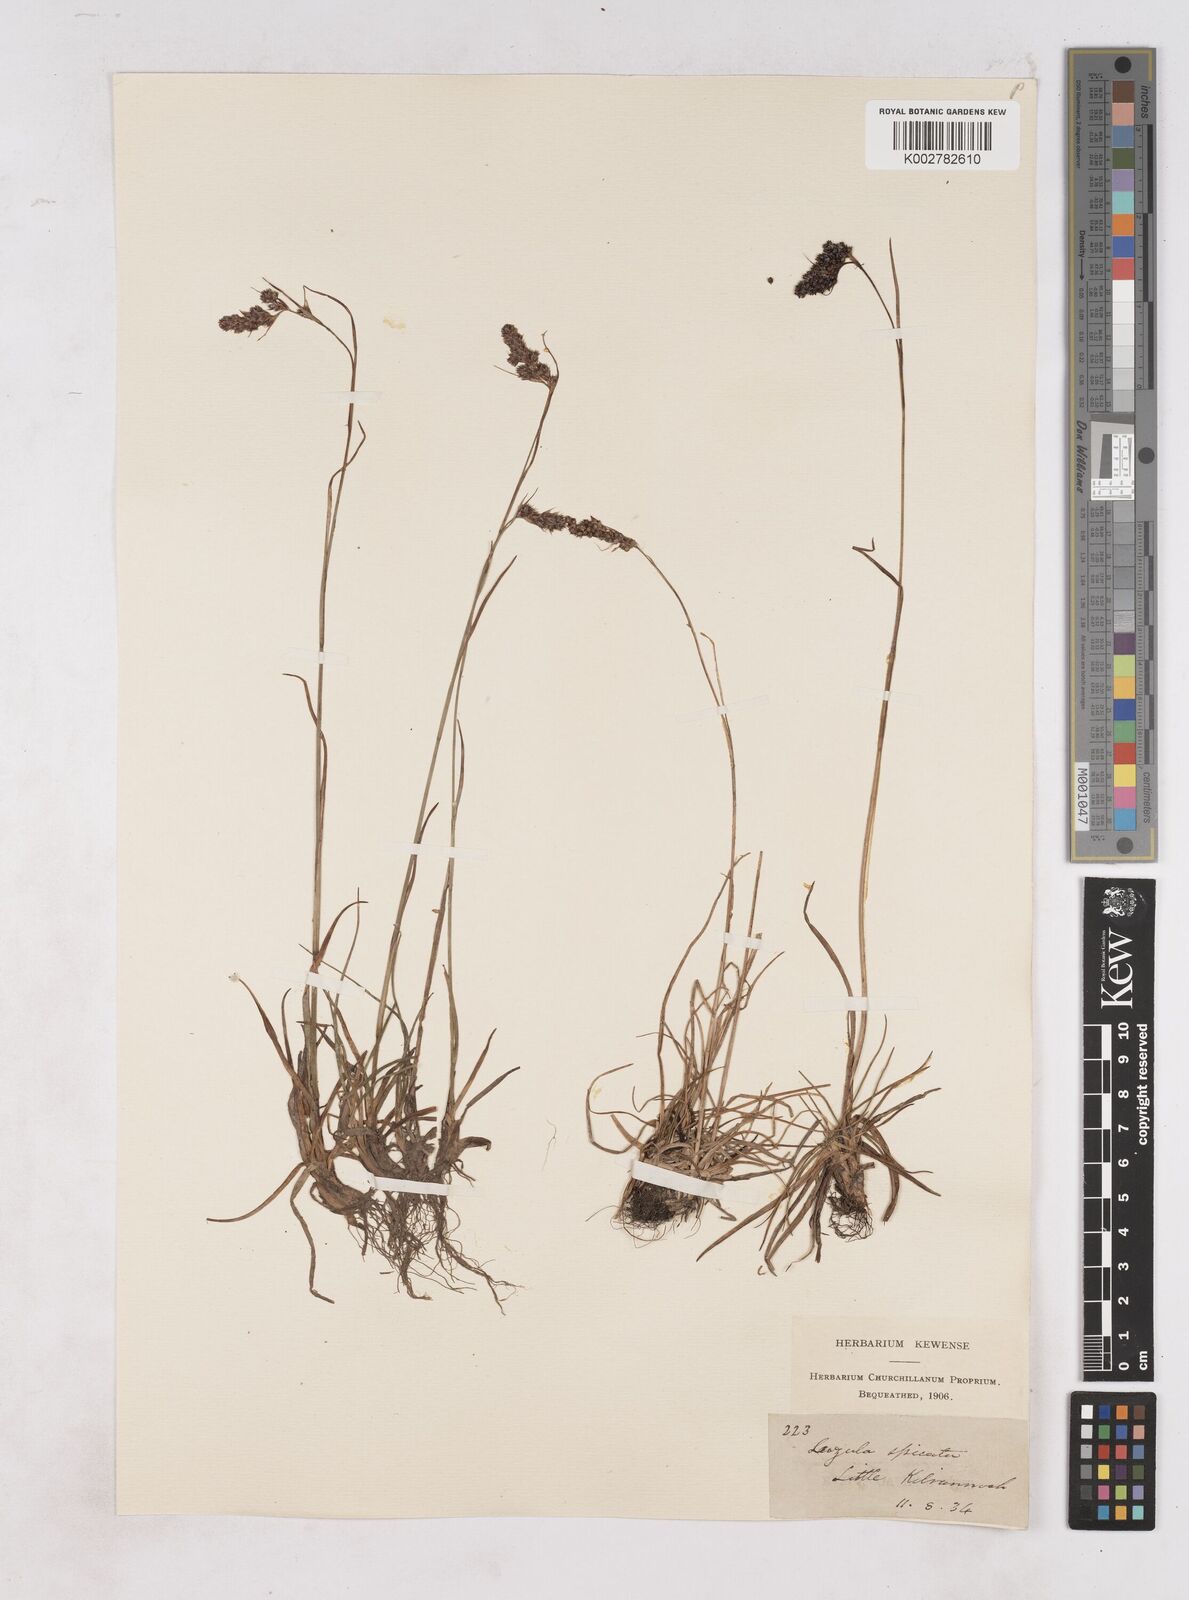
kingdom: Plantae
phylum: Tracheophyta
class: Liliopsida
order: Poales
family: Juncaceae
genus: Luzula
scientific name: Luzula spicata
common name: Spiked wood-rush
